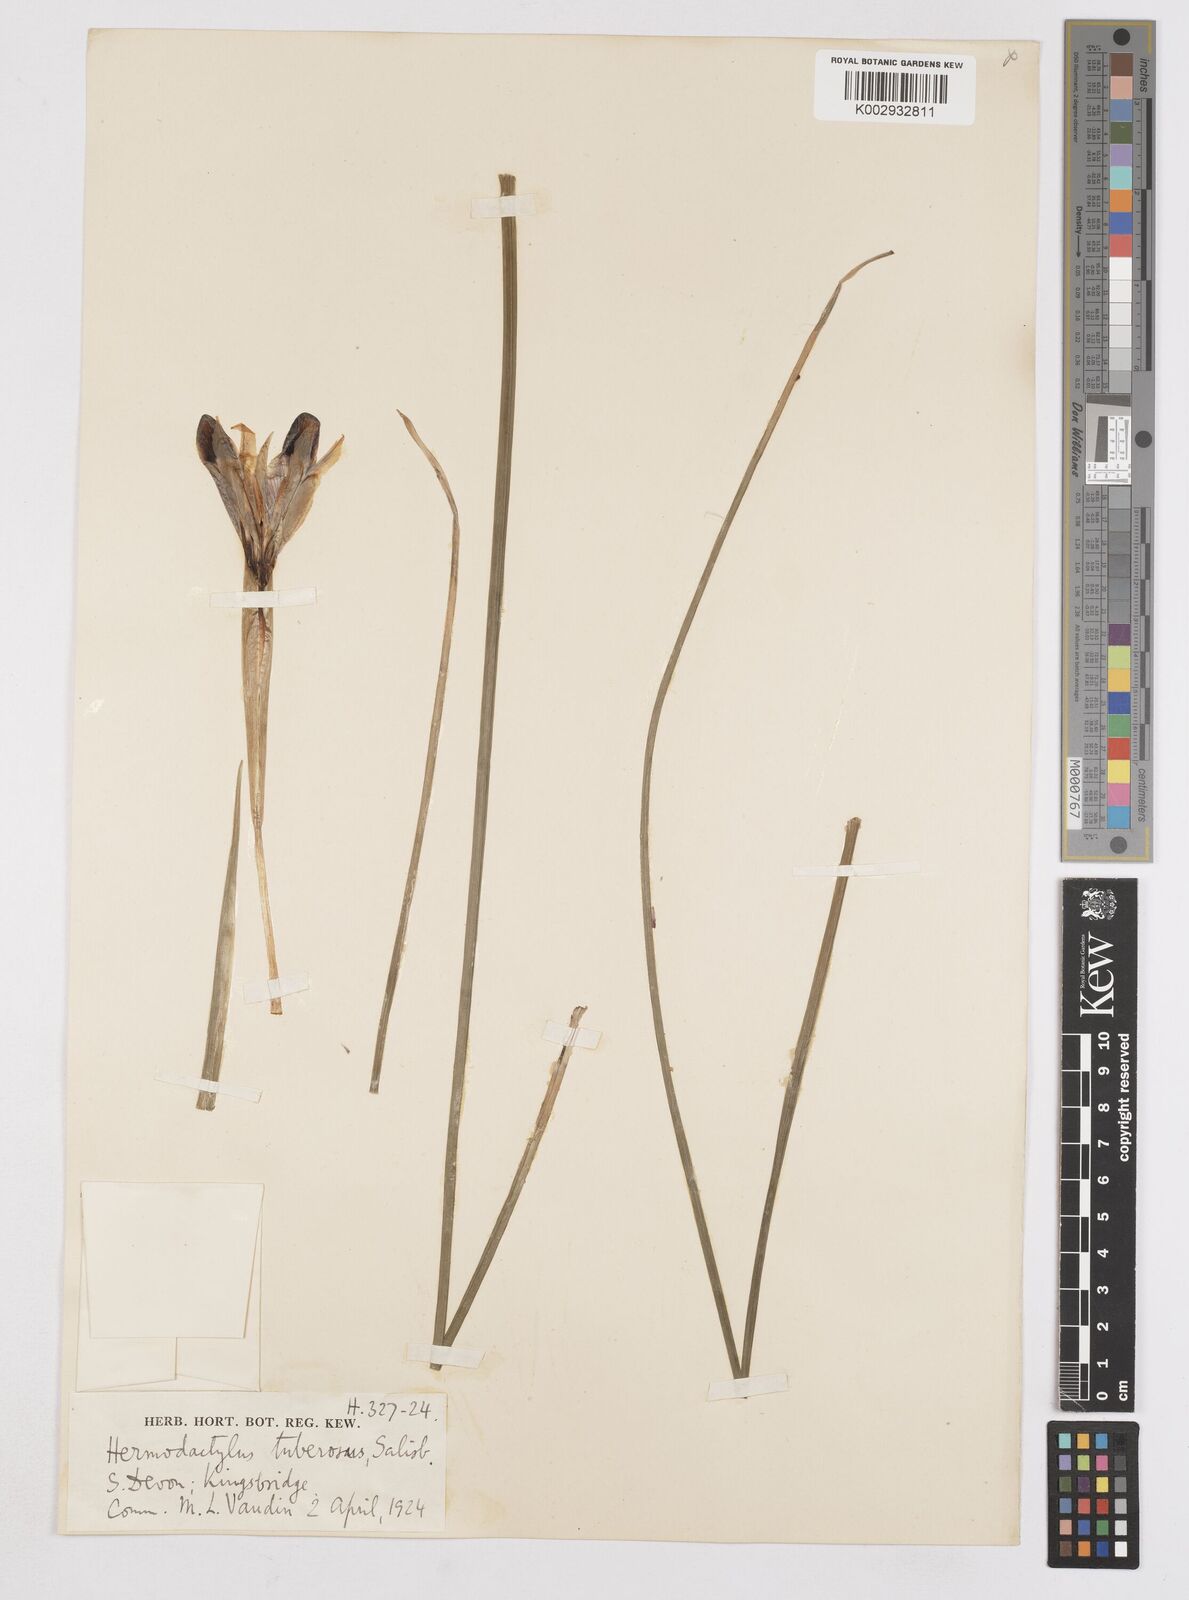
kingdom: Plantae
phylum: Tracheophyta
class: Liliopsida
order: Asparagales
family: Iridaceae
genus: Iris
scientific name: Iris tuberosa
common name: Snake's-head iris
